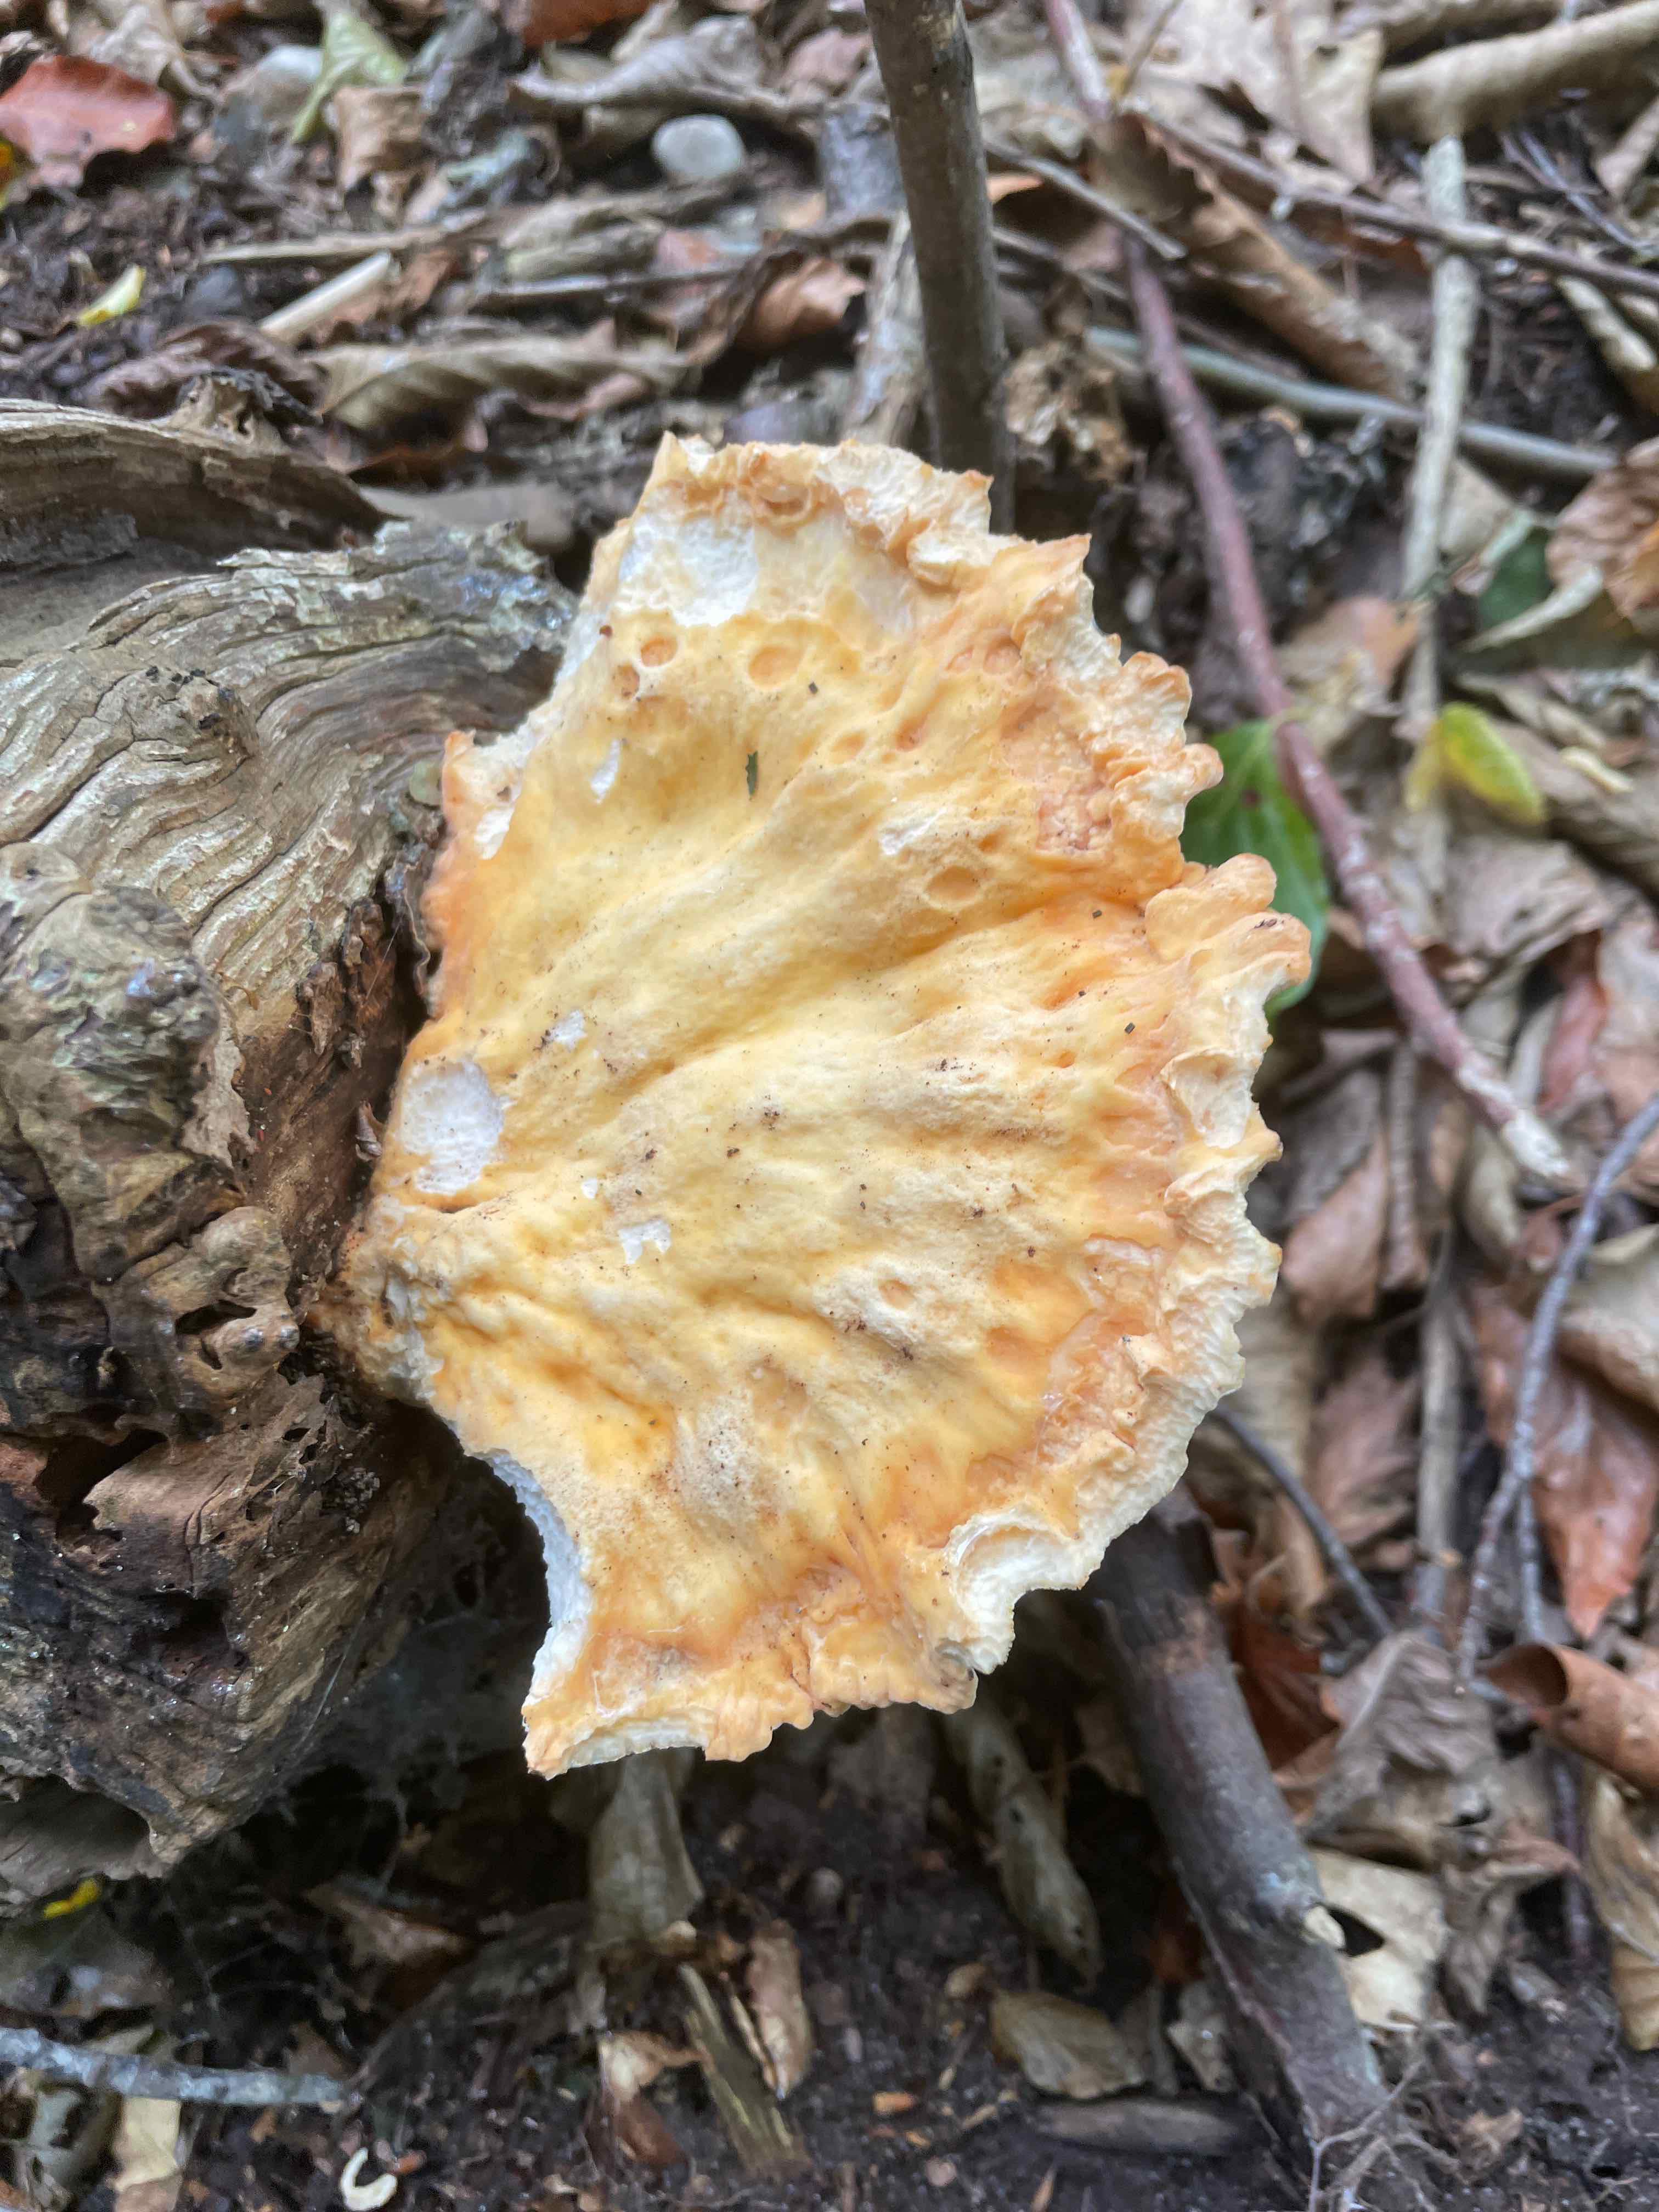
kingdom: Fungi
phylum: Basidiomycota
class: Agaricomycetes
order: Polyporales
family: Laetiporaceae
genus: Laetiporus
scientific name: Laetiporus sulphureus
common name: svovlporesvamp
